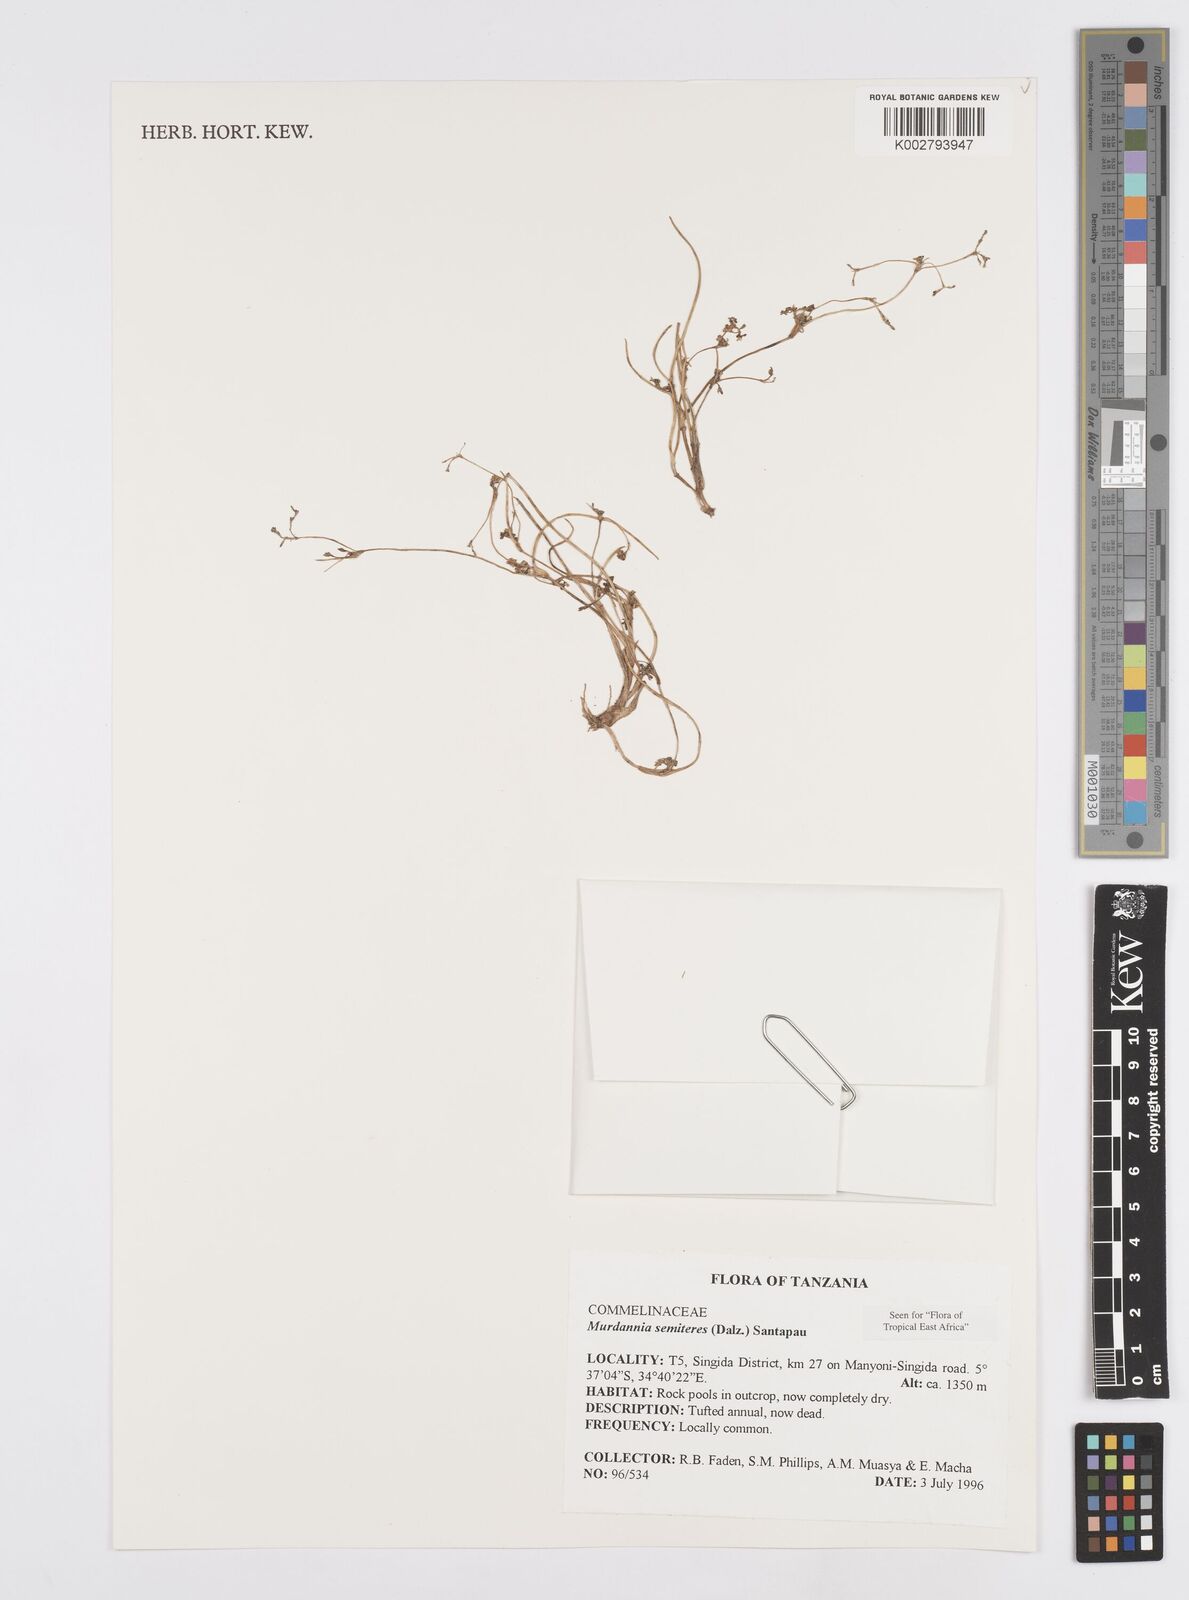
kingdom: Plantae
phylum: Tracheophyta
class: Liliopsida
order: Commelinales
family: Commelinaceae
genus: Murdannia
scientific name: Murdannia semiteres
